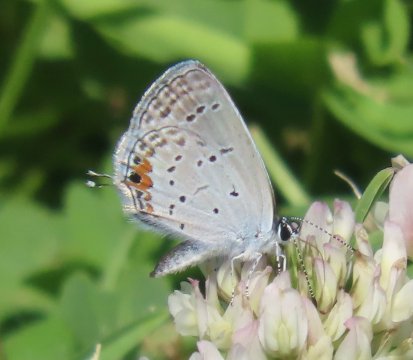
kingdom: Animalia
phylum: Arthropoda
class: Insecta
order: Lepidoptera
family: Lycaenidae
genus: Elkalyce
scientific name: Elkalyce comyntas
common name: Eastern Tailed-Blue
